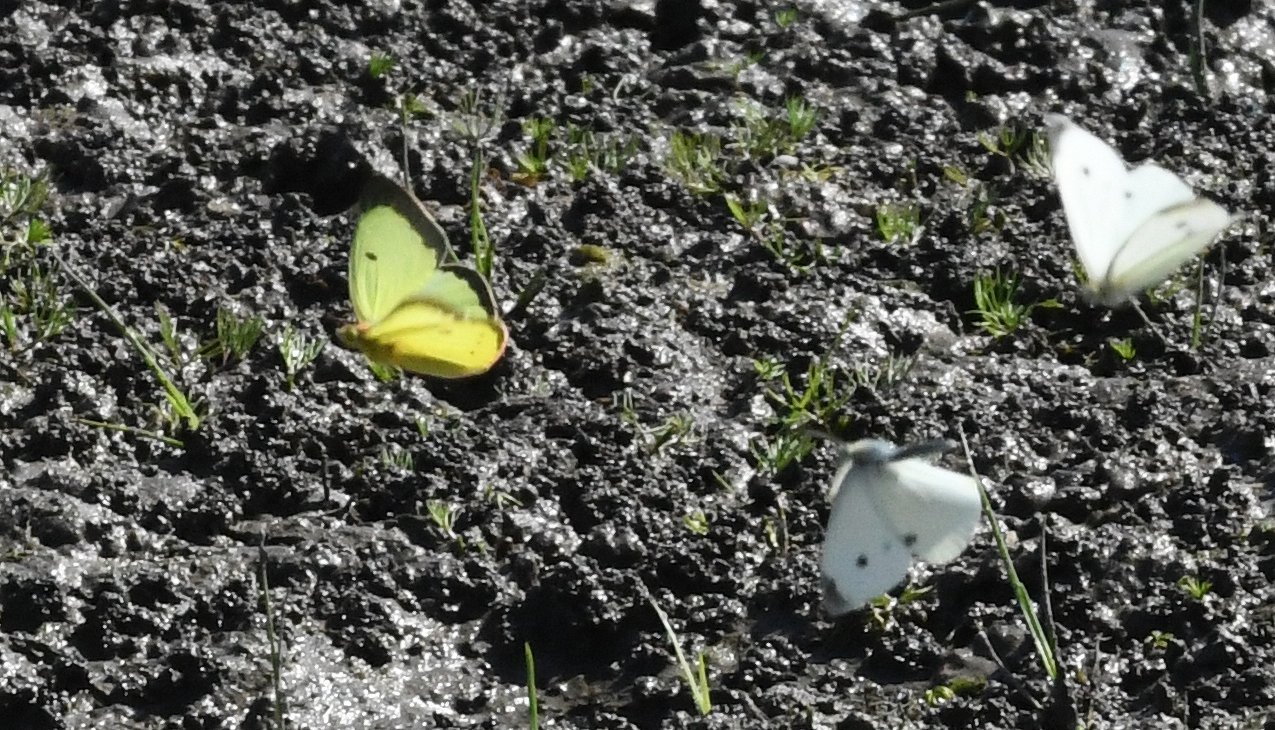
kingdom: Animalia
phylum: Arthropoda
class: Insecta
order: Lepidoptera
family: Pieridae
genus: Colias
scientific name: Colias philodice
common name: Clouded Sulphur
